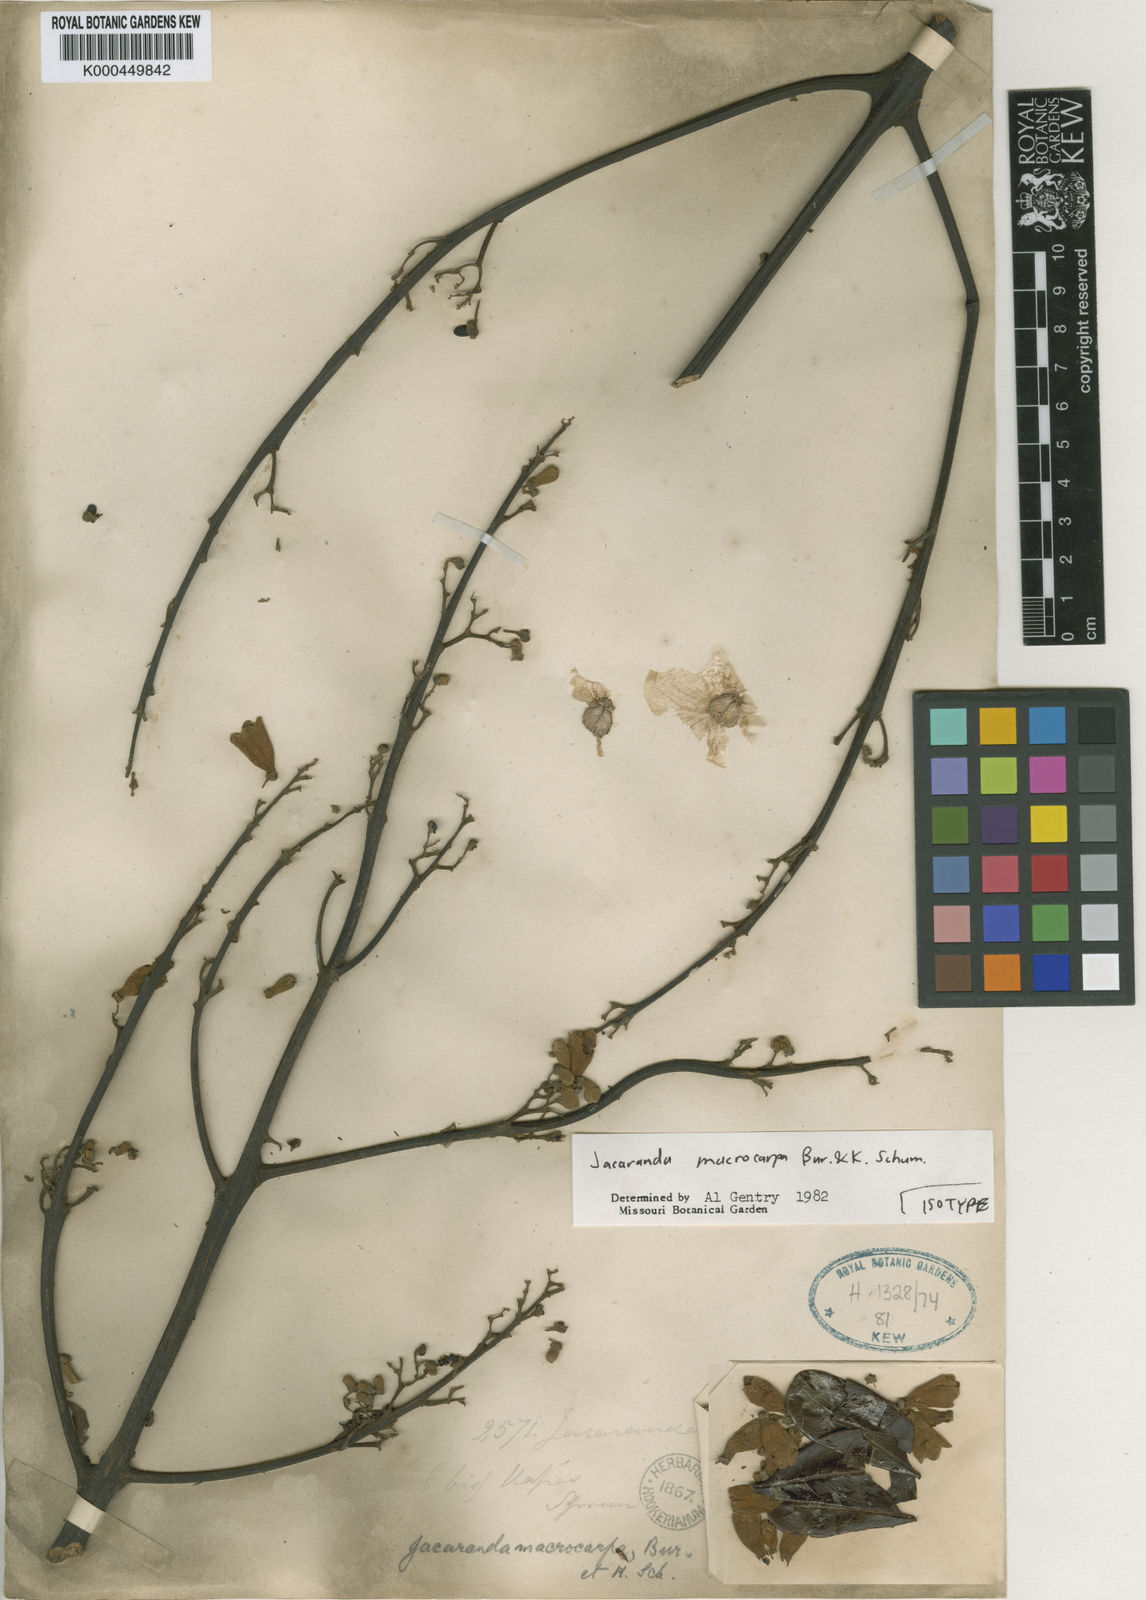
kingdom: Plantae
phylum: Tracheophyta
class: Magnoliopsida
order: Lamiales
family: Bignoniaceae
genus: Jacaranda
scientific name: Jacaranda macrocarpa
